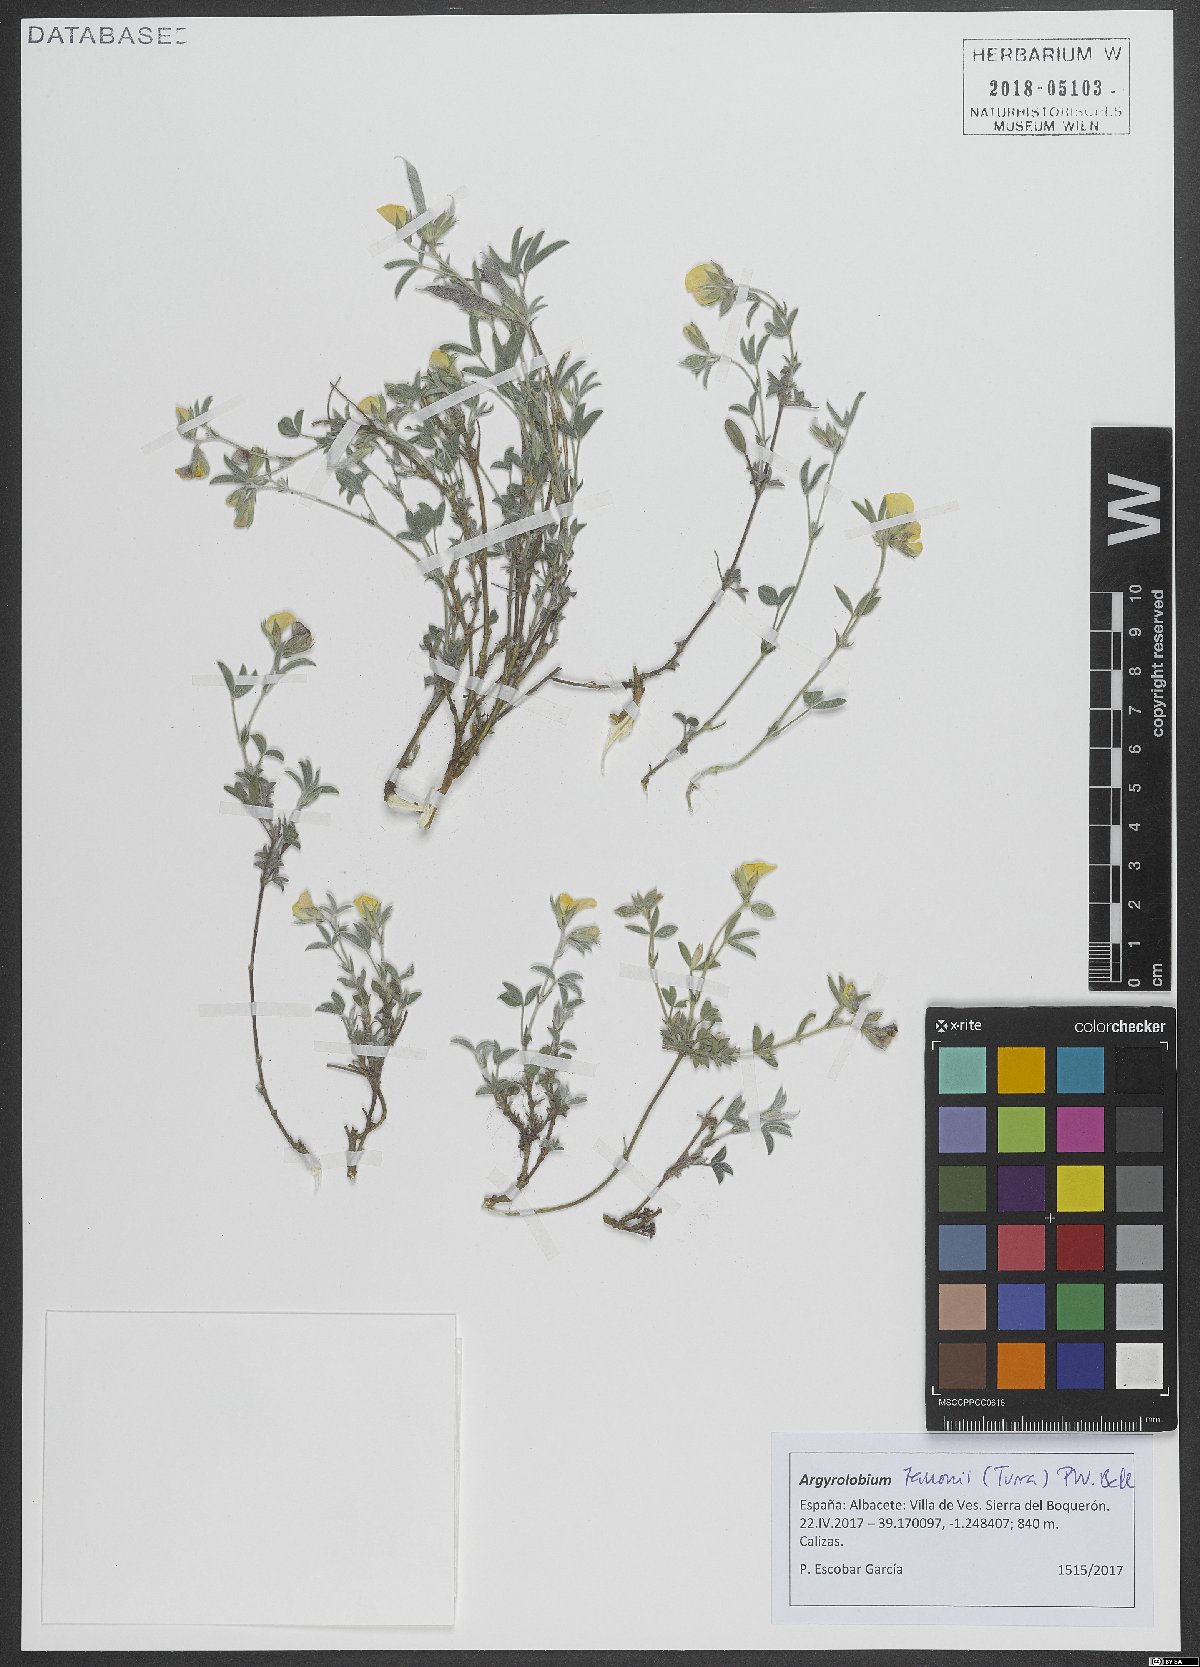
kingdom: Plantae
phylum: Tracheophyta
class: Magnoliopsida
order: Fabales
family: Fabaceae
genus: Argyrolobium
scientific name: Argyrolobium zanonii
